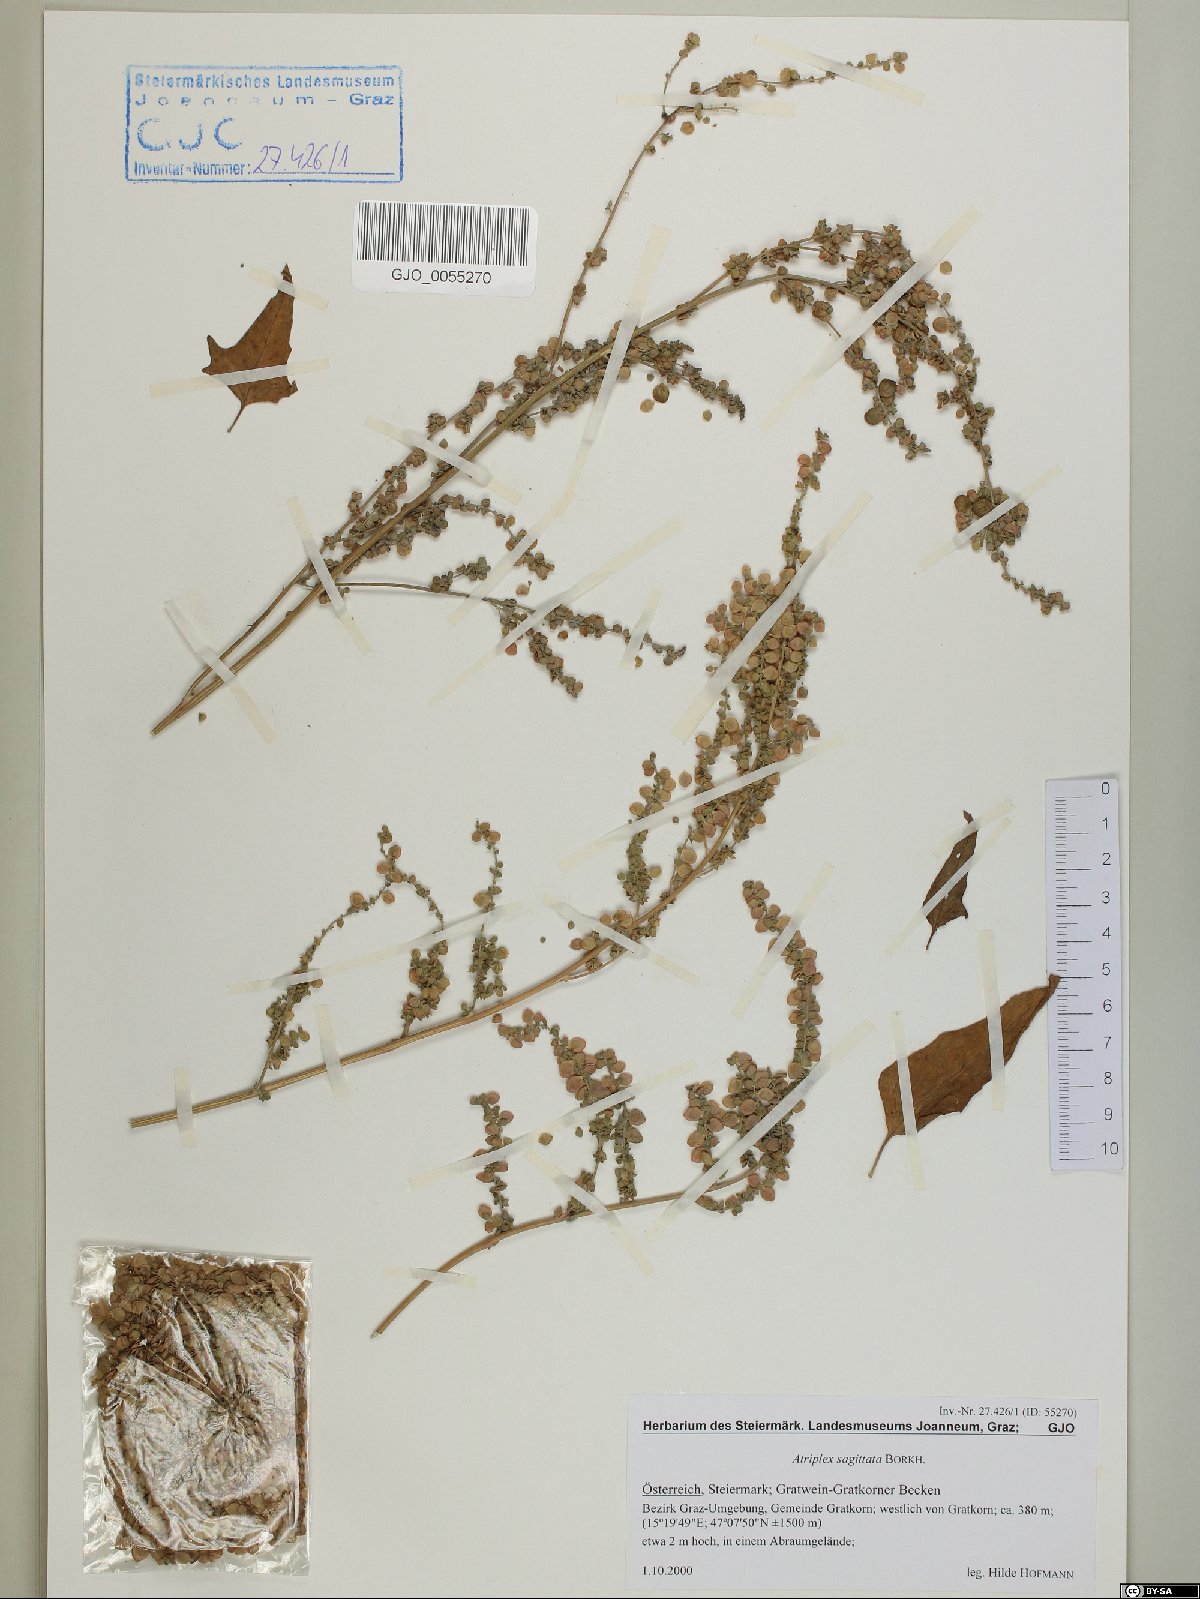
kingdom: Plantae
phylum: Tracheophyta
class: Magnoliopsida
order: Caryophyllales
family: Amaranthaceae
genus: Atriplex
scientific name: Atriplex sagittata
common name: Purple orache
